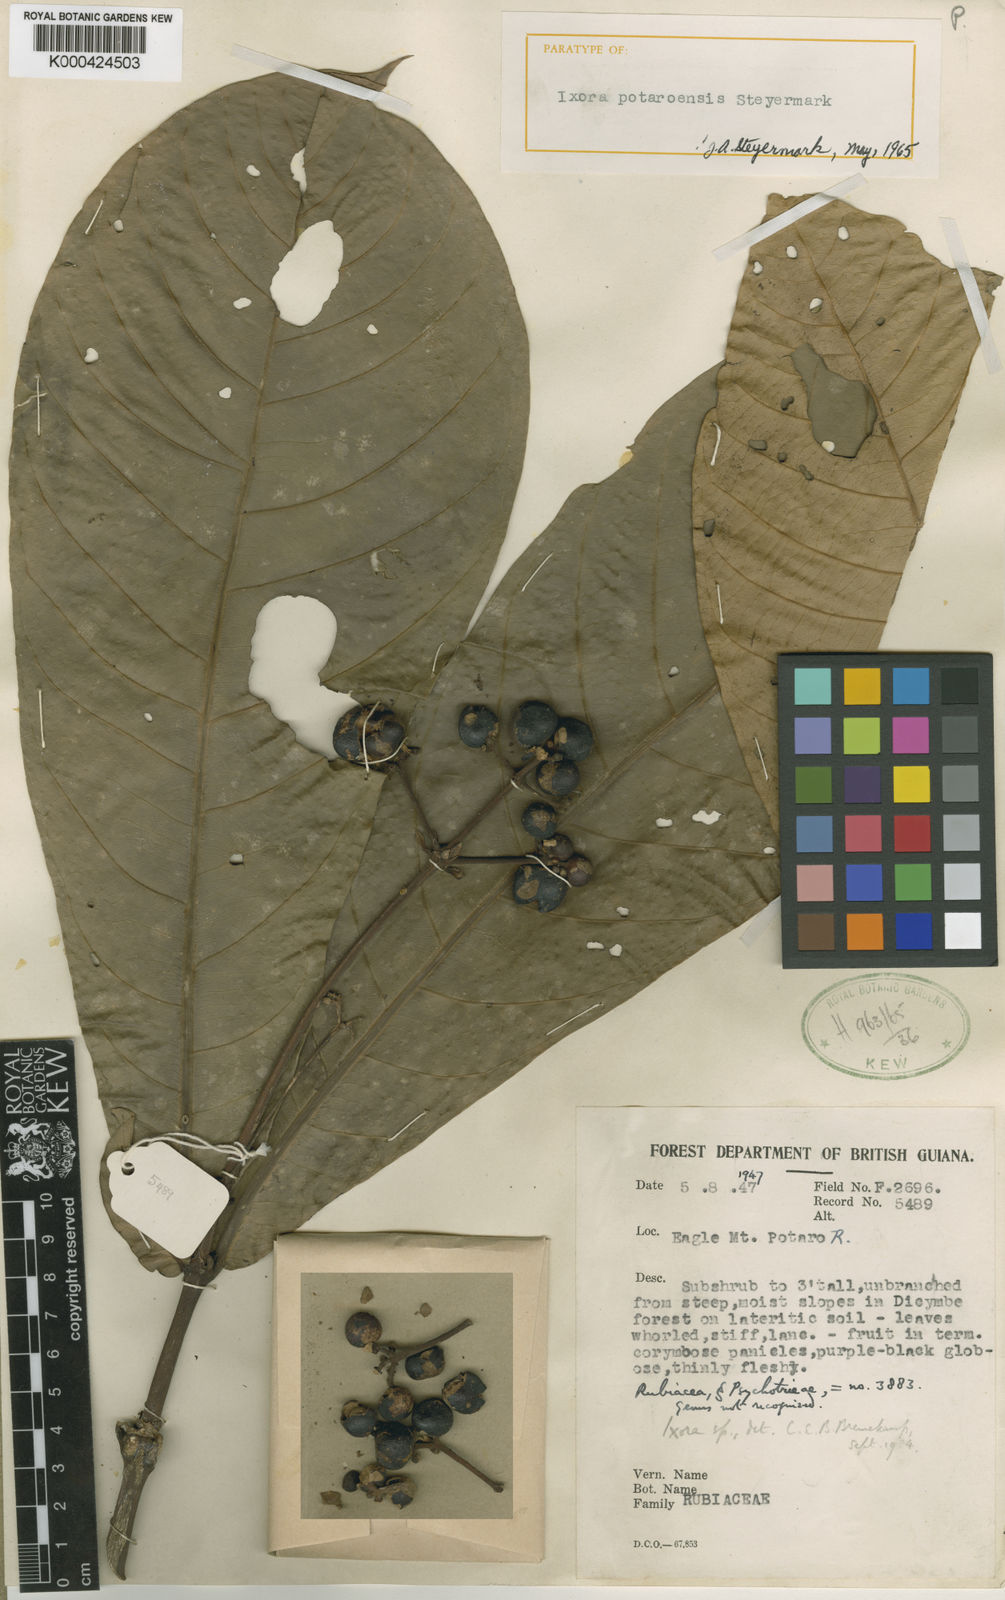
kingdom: Plantae
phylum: Tracheophyta
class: Magnoliopsida
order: Gentianales
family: Rubiaceae
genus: Ixora
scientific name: Ixora potaroensis
